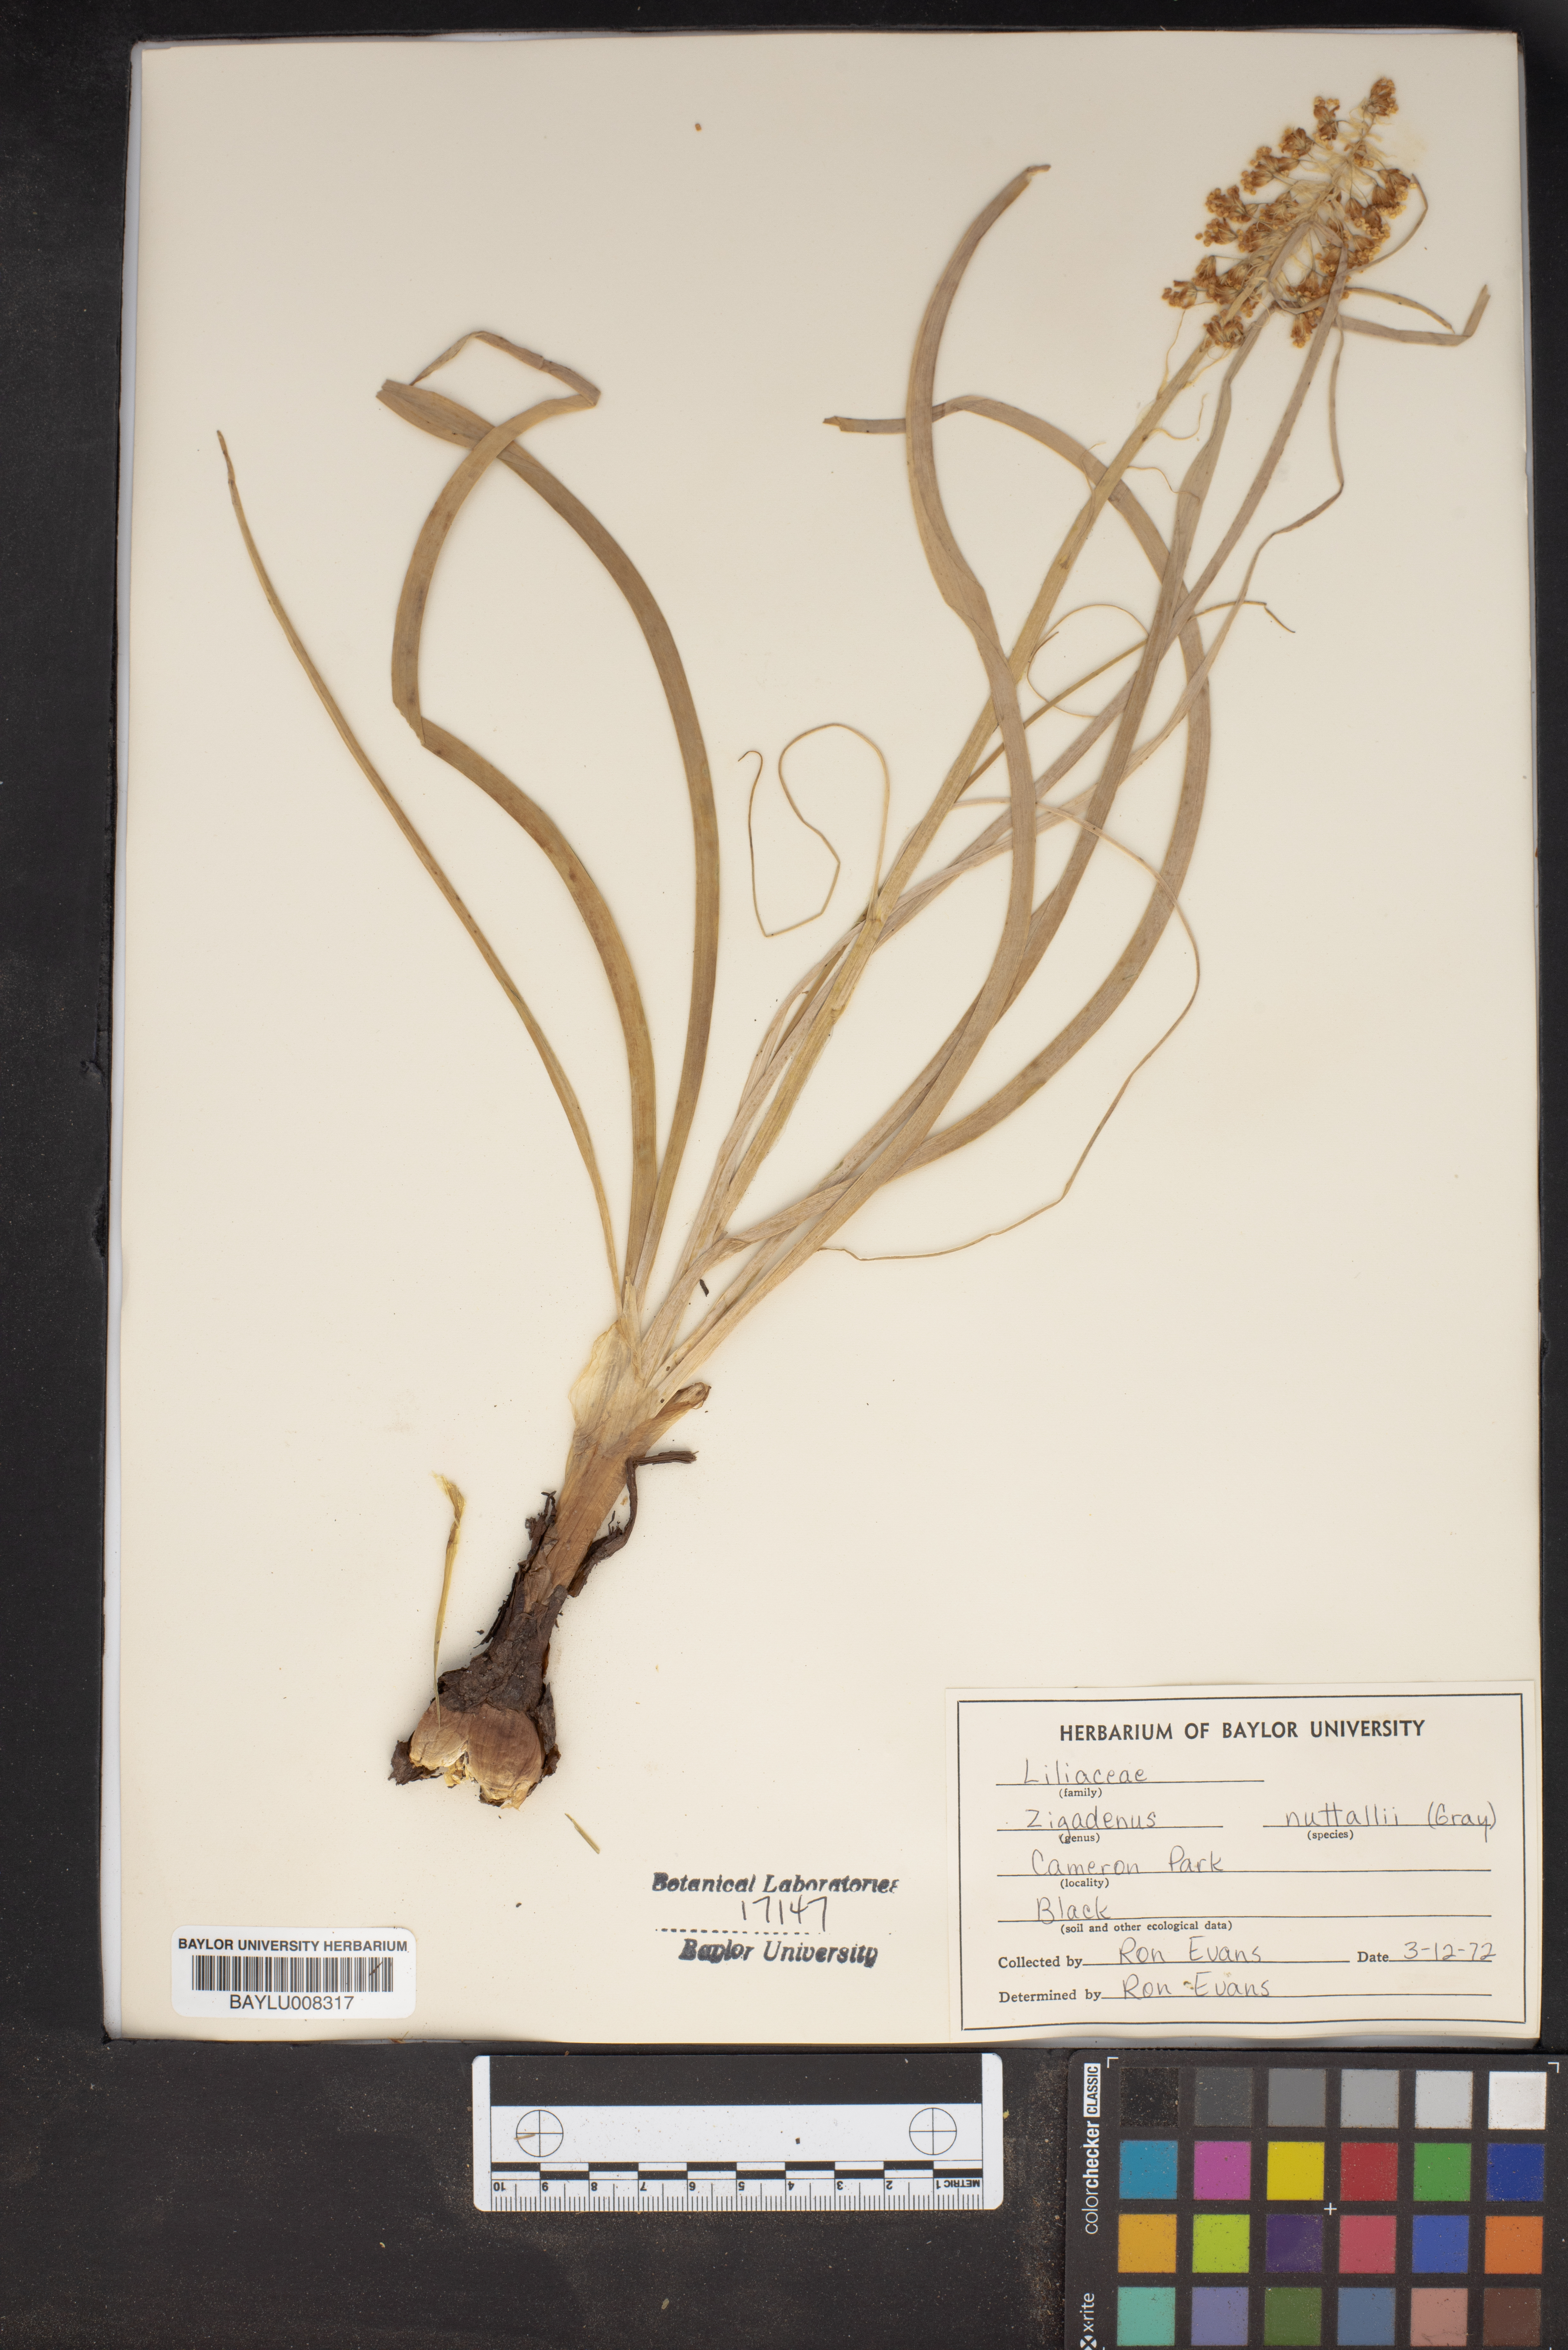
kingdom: Plantae
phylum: Tracheophyta
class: Liliopsida
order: Liliales
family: Melanthiaceae
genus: Toxicoscordion
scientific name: Toxicoscordion nuttallii
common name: Poison sego
